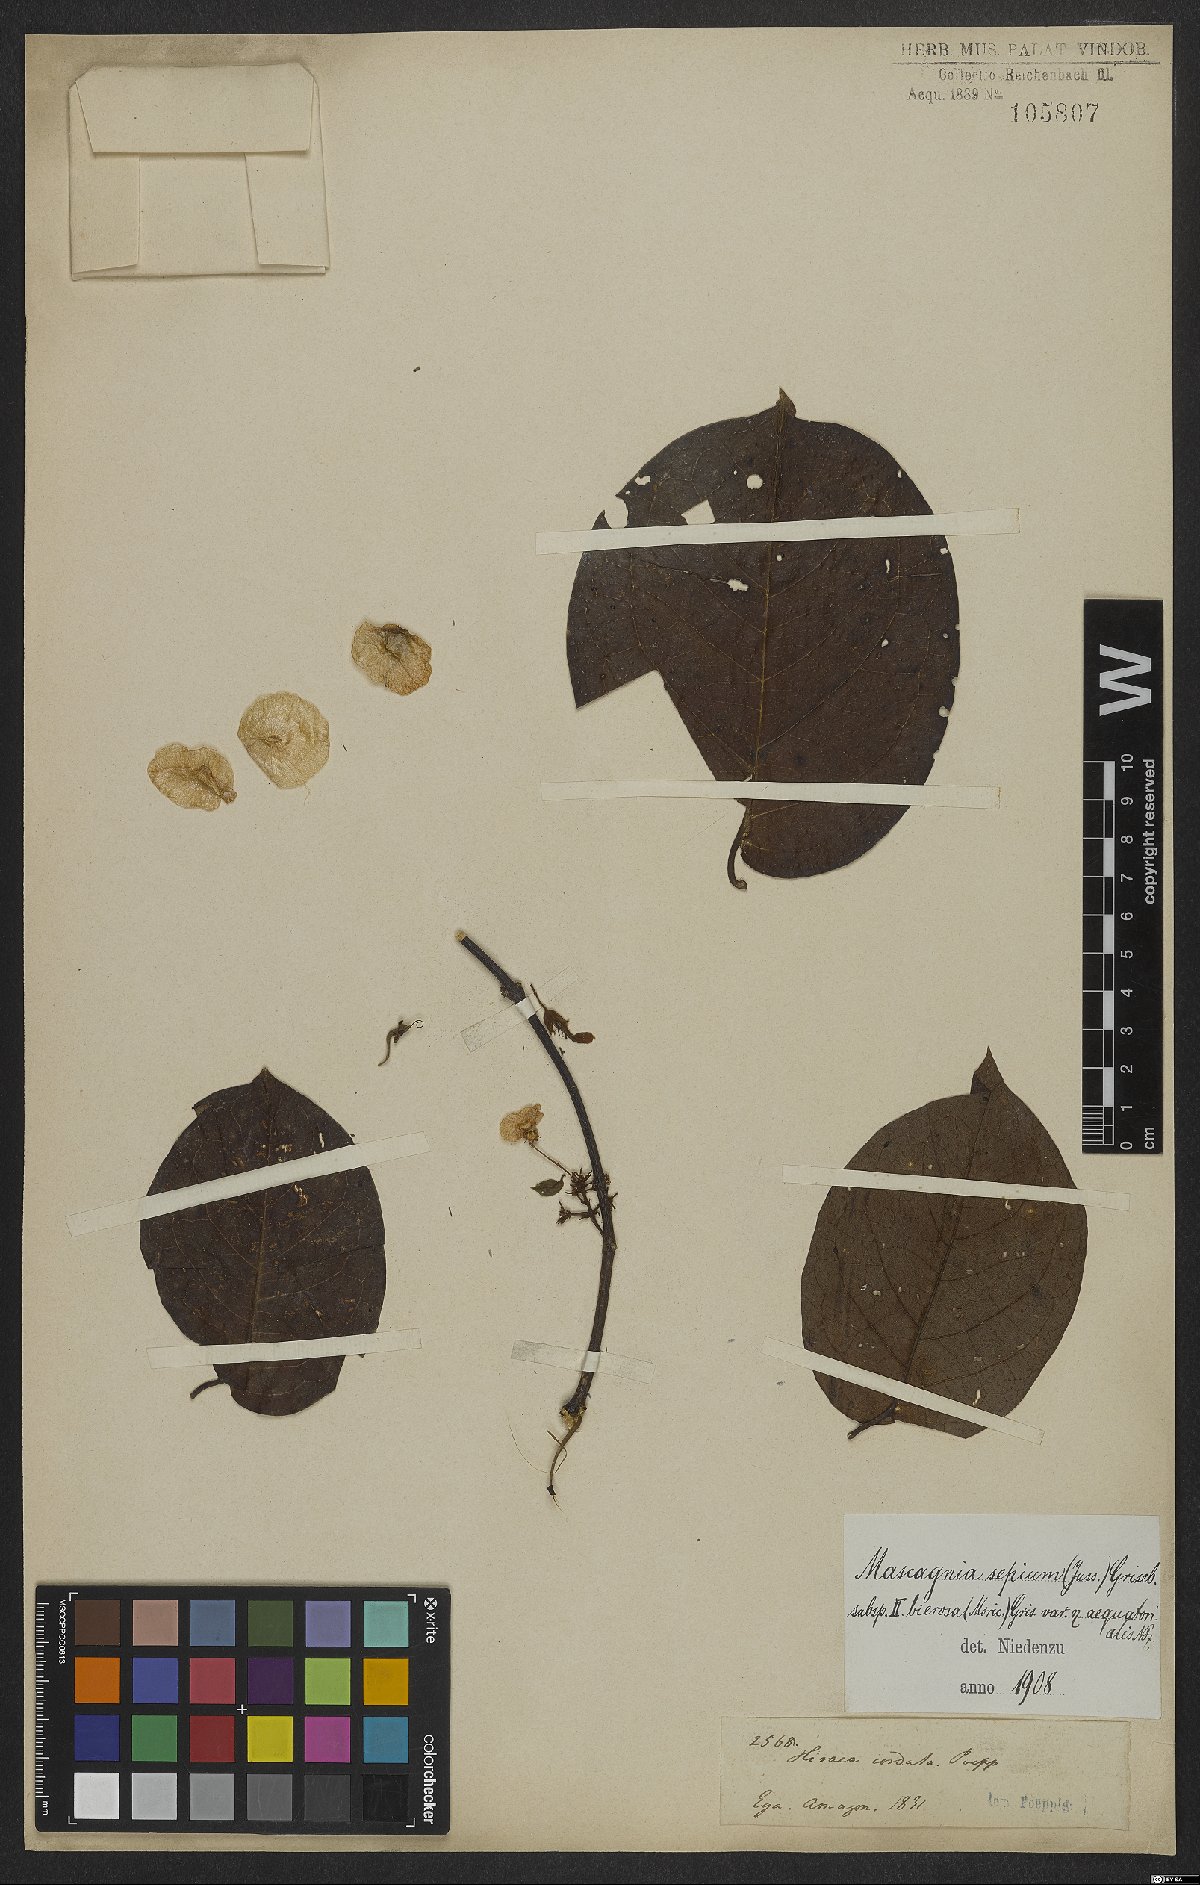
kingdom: Plantae
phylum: Tracheophyta
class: Magnoliopsida
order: Malpighiales
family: Malpighiaceae
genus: Mascagnia
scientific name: Mascagnia sepium
